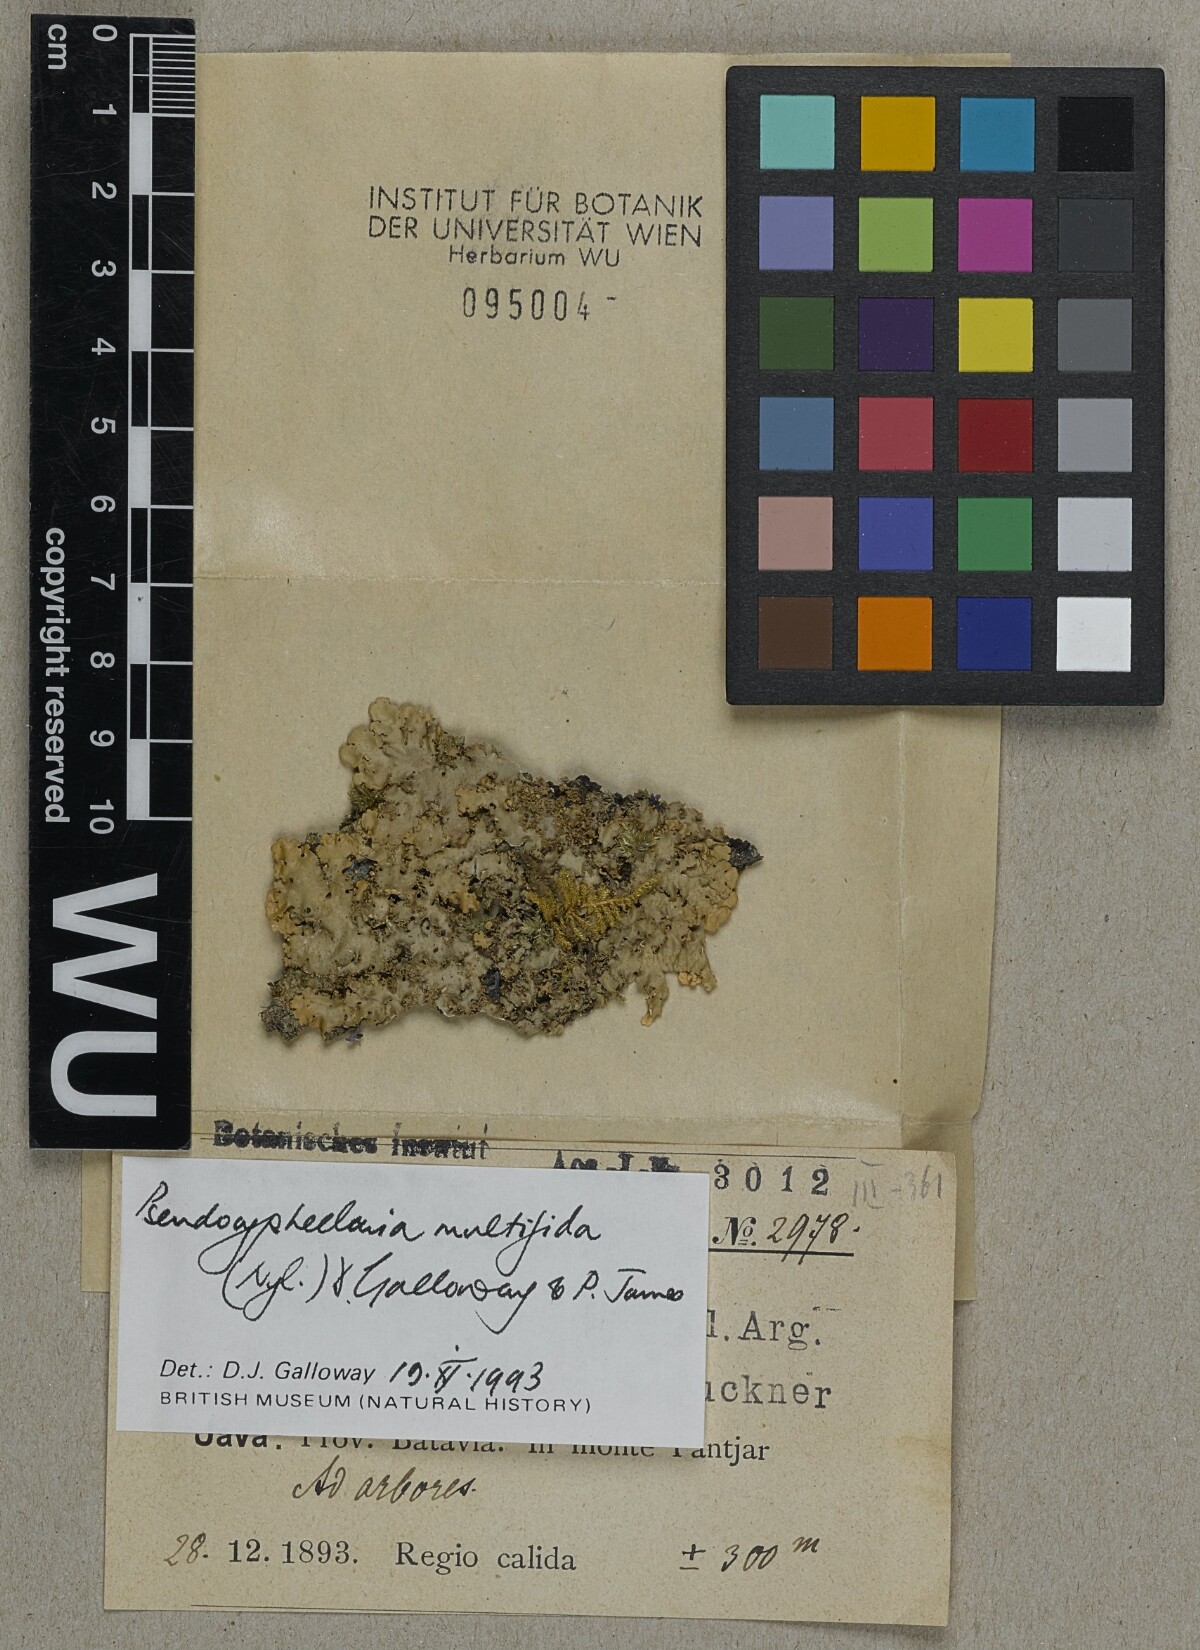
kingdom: Fungi
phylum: Ascomycota
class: Lecanoromycetes
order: Peltigerales
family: Lobariaceae
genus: Pseudocyphellaria
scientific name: Pseudocyphellaria multifida
